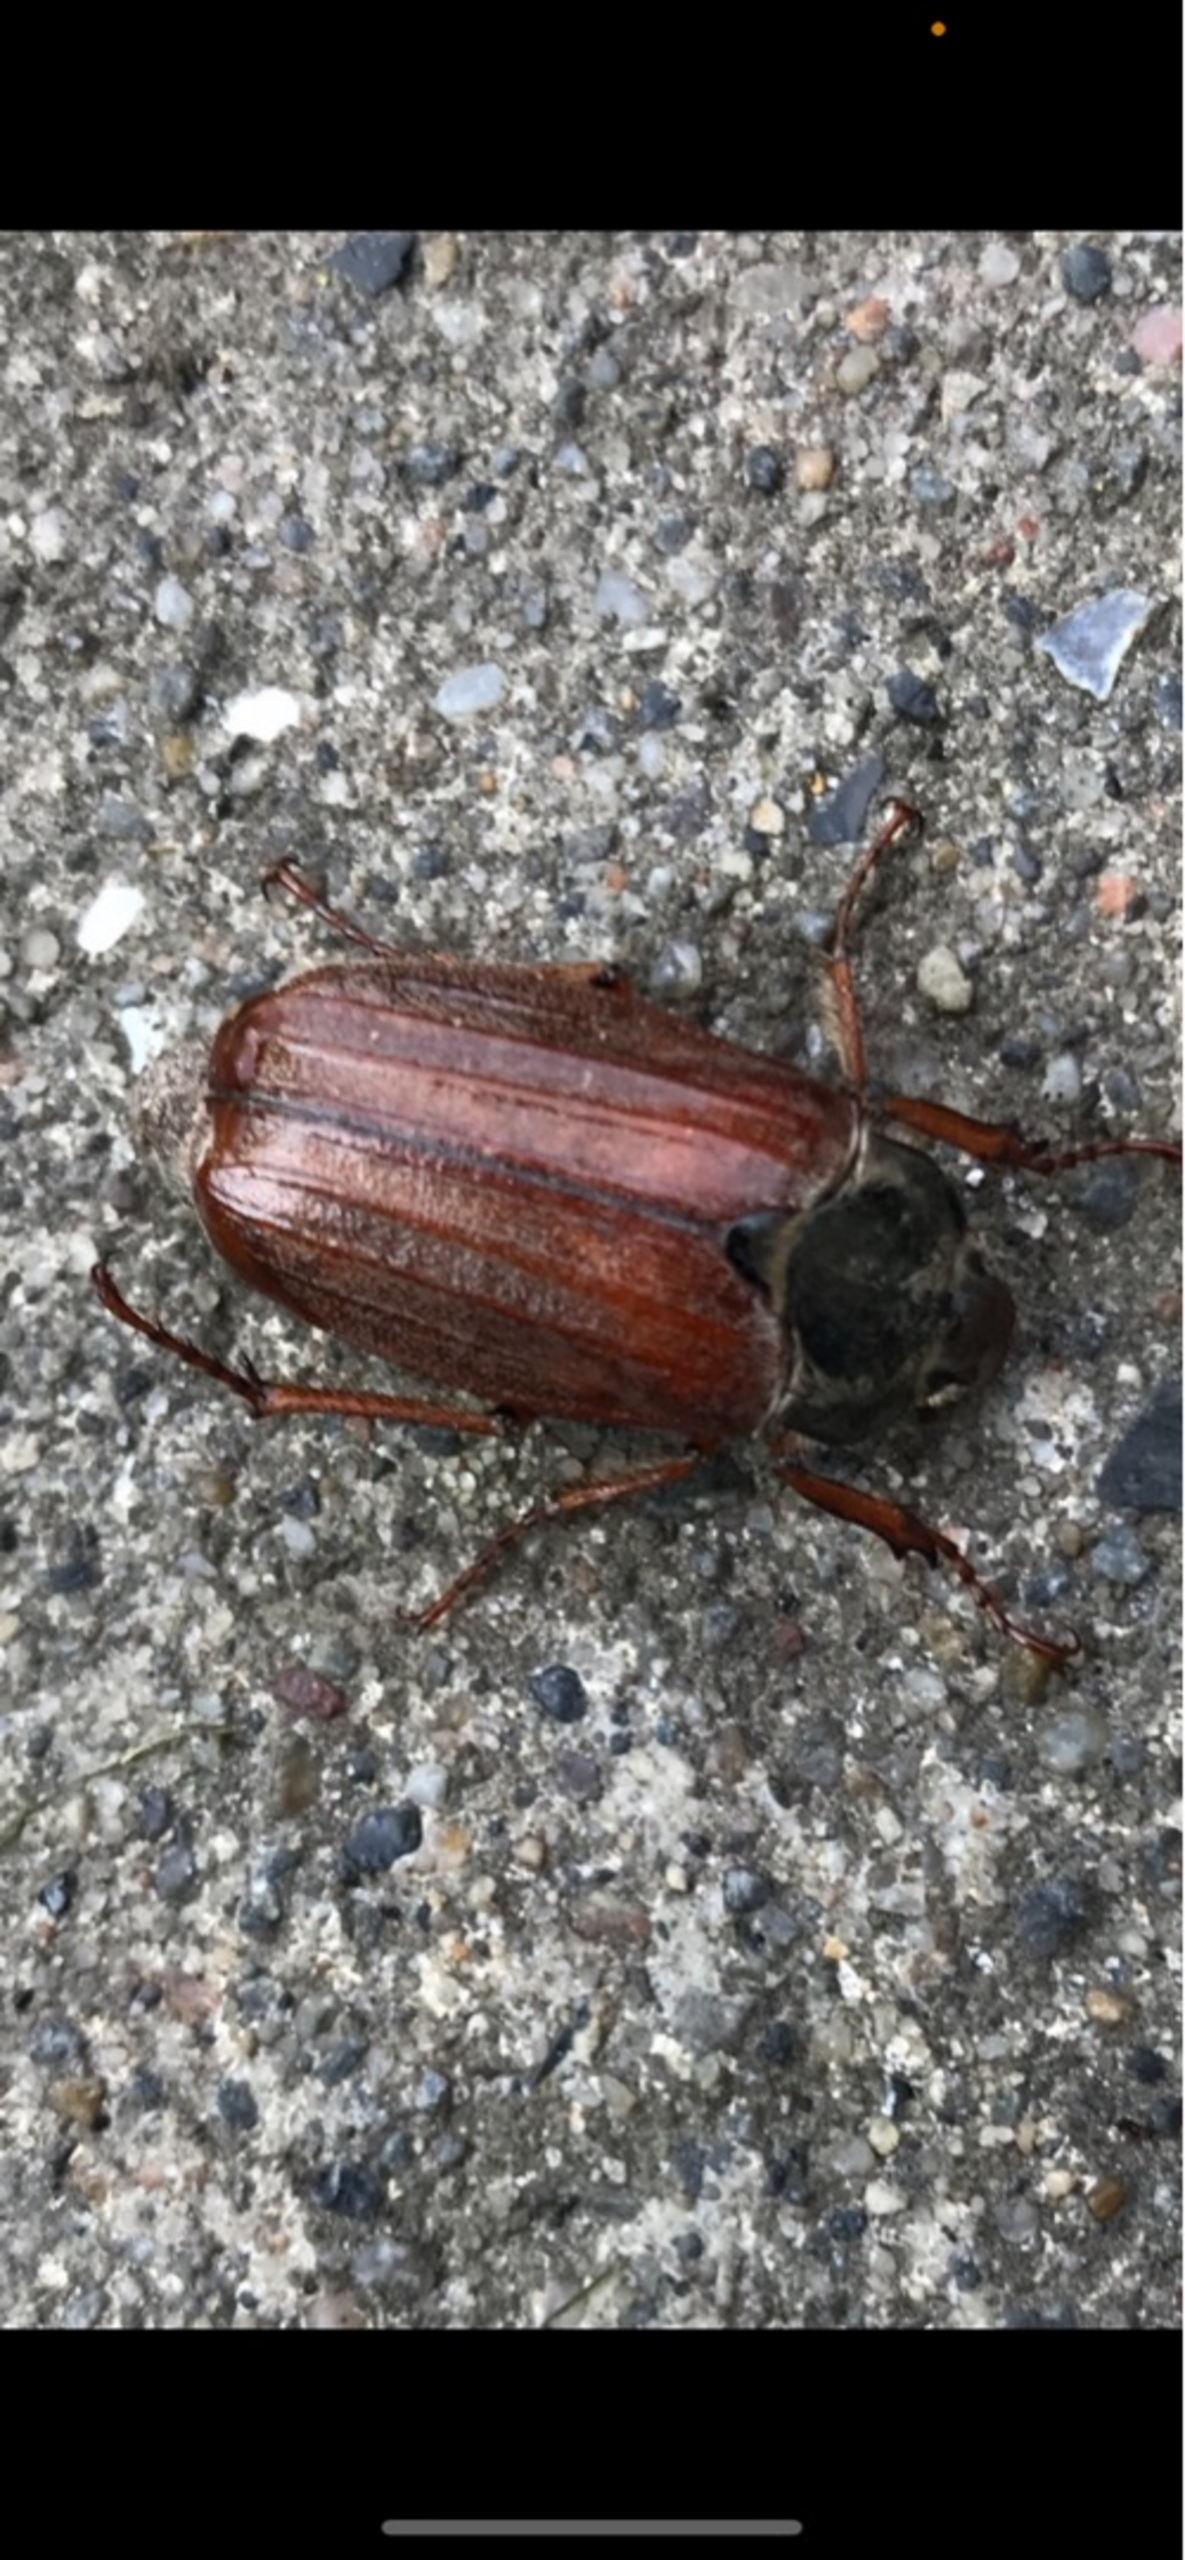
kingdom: Animalia
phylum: Arthropoda
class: Insecta
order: Coleoptera
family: Scarabaeidae
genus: Melolontha
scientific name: Melolontha melolontha
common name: Almindelig oldenborre
